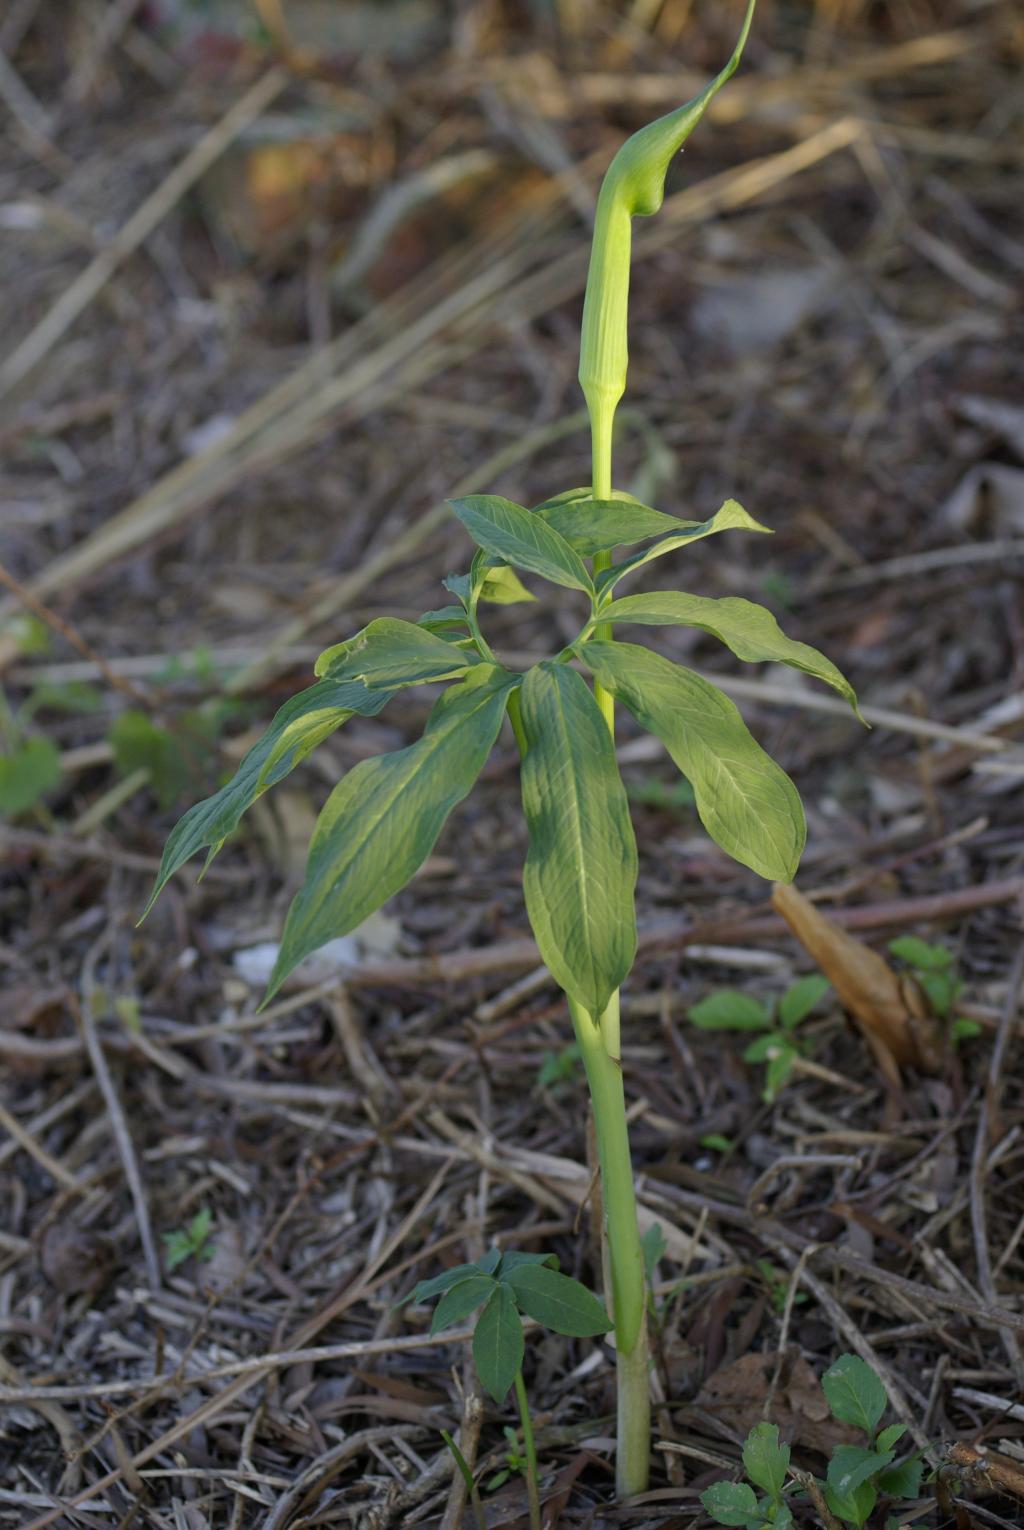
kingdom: Plantae
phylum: Tracheophyta
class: Liliopsida
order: Alismatales
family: Araceae
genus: Arisaema
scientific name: Arisaema heterophyllum
